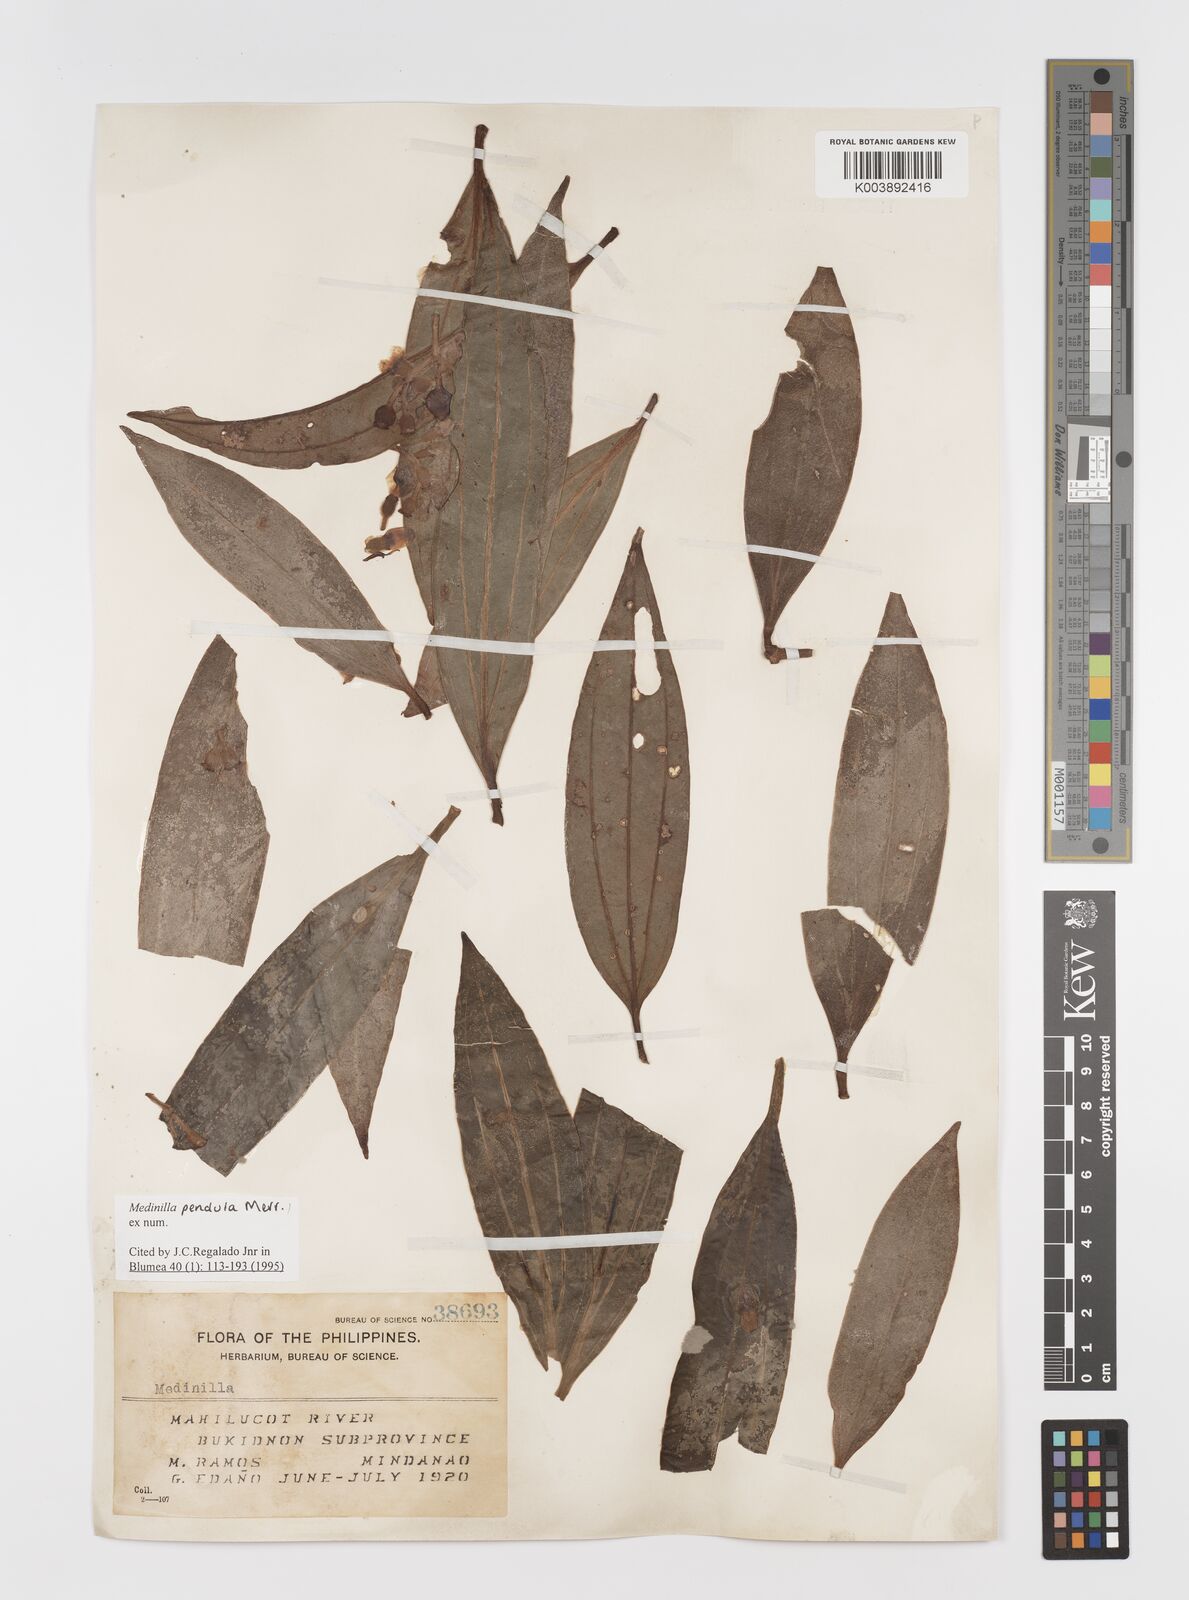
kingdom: Plantae
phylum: Tracheophyta
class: Magnoliopsida
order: Myrtales
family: Melastomataceae
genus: Medinilla
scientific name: Medinilla pendula
